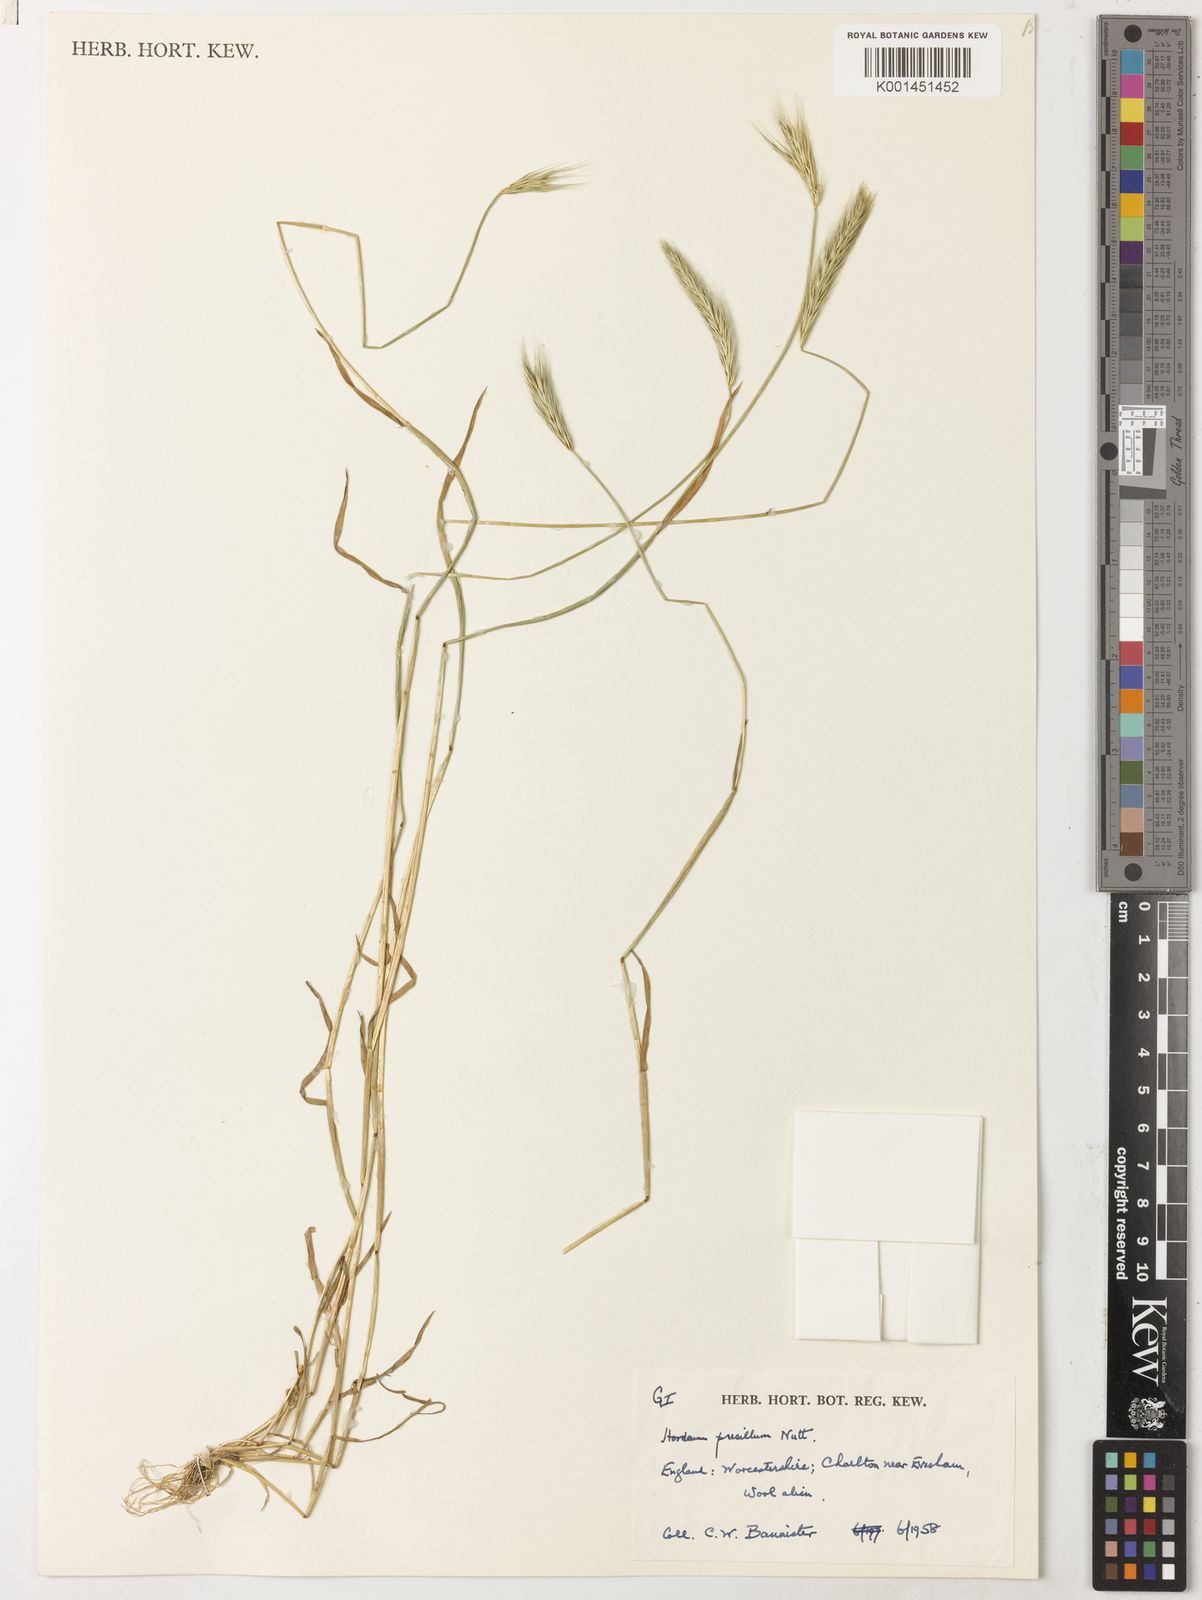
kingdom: Plantae
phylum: Tracheophyta
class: Liliopsida
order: Poales
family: Poaceae
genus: Hordeum
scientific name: Hordeum pusillum
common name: Little barley
